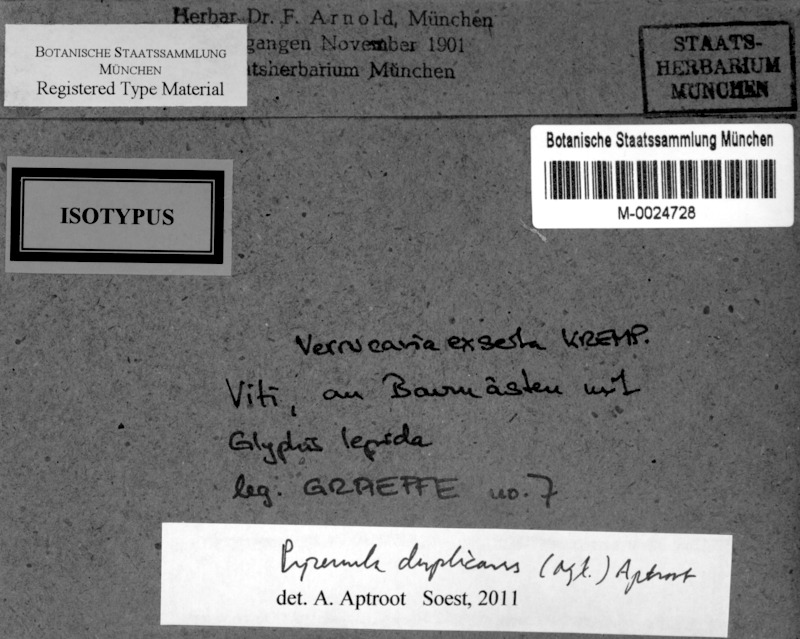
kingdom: Fungi
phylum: Ascomycota
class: Eurotiomycetes
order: Pyrenulales
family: Pyrenulaceae
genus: Pyrenula
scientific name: Pyrenula duplicans
